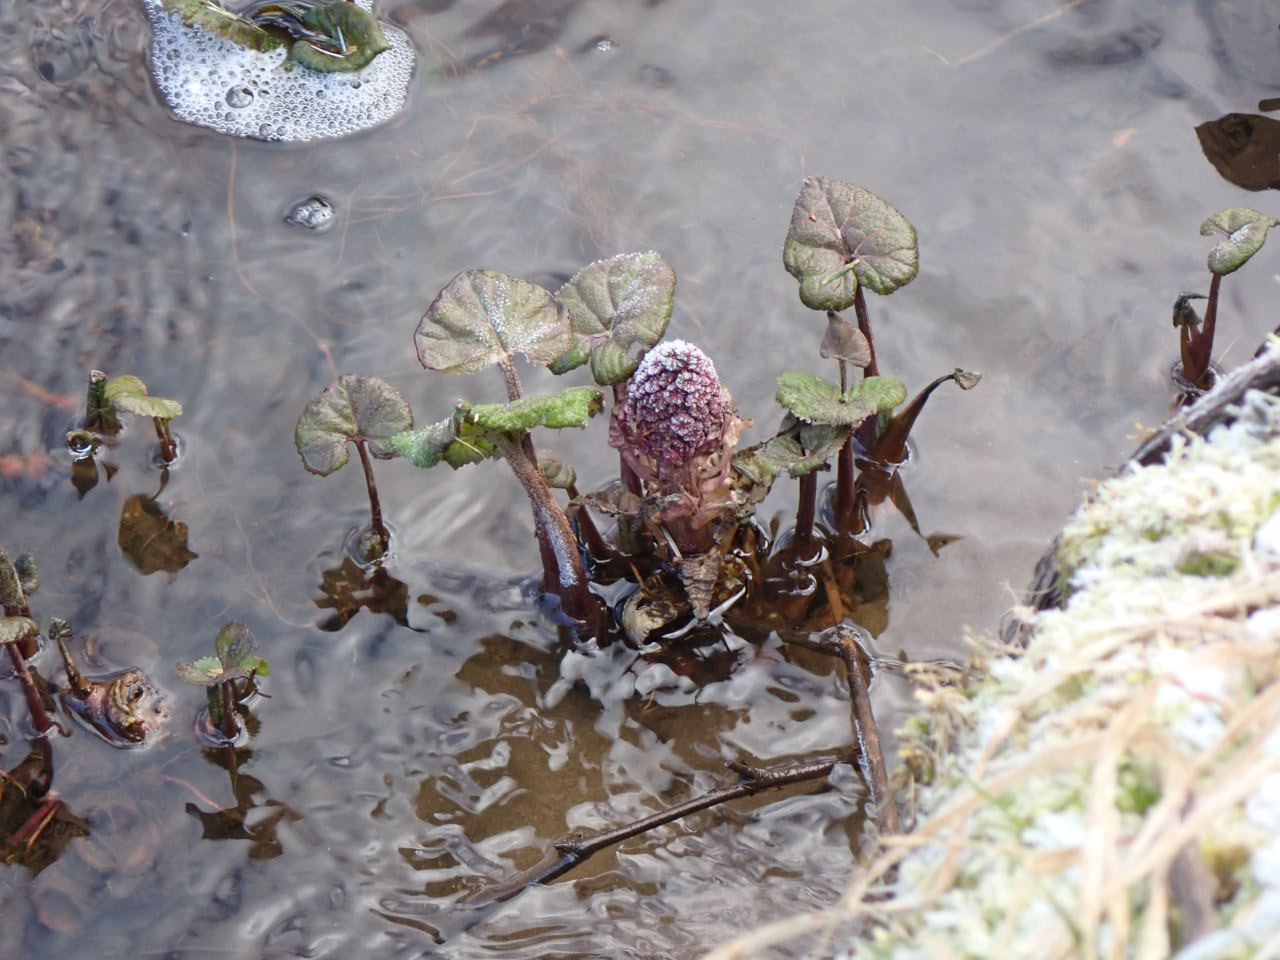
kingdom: Plantae
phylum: Tracheophyta
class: Magnoliopsida
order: Asterales
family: Asteraceae
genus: Petasites
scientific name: Petasites hybridus
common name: Rød hestehov
